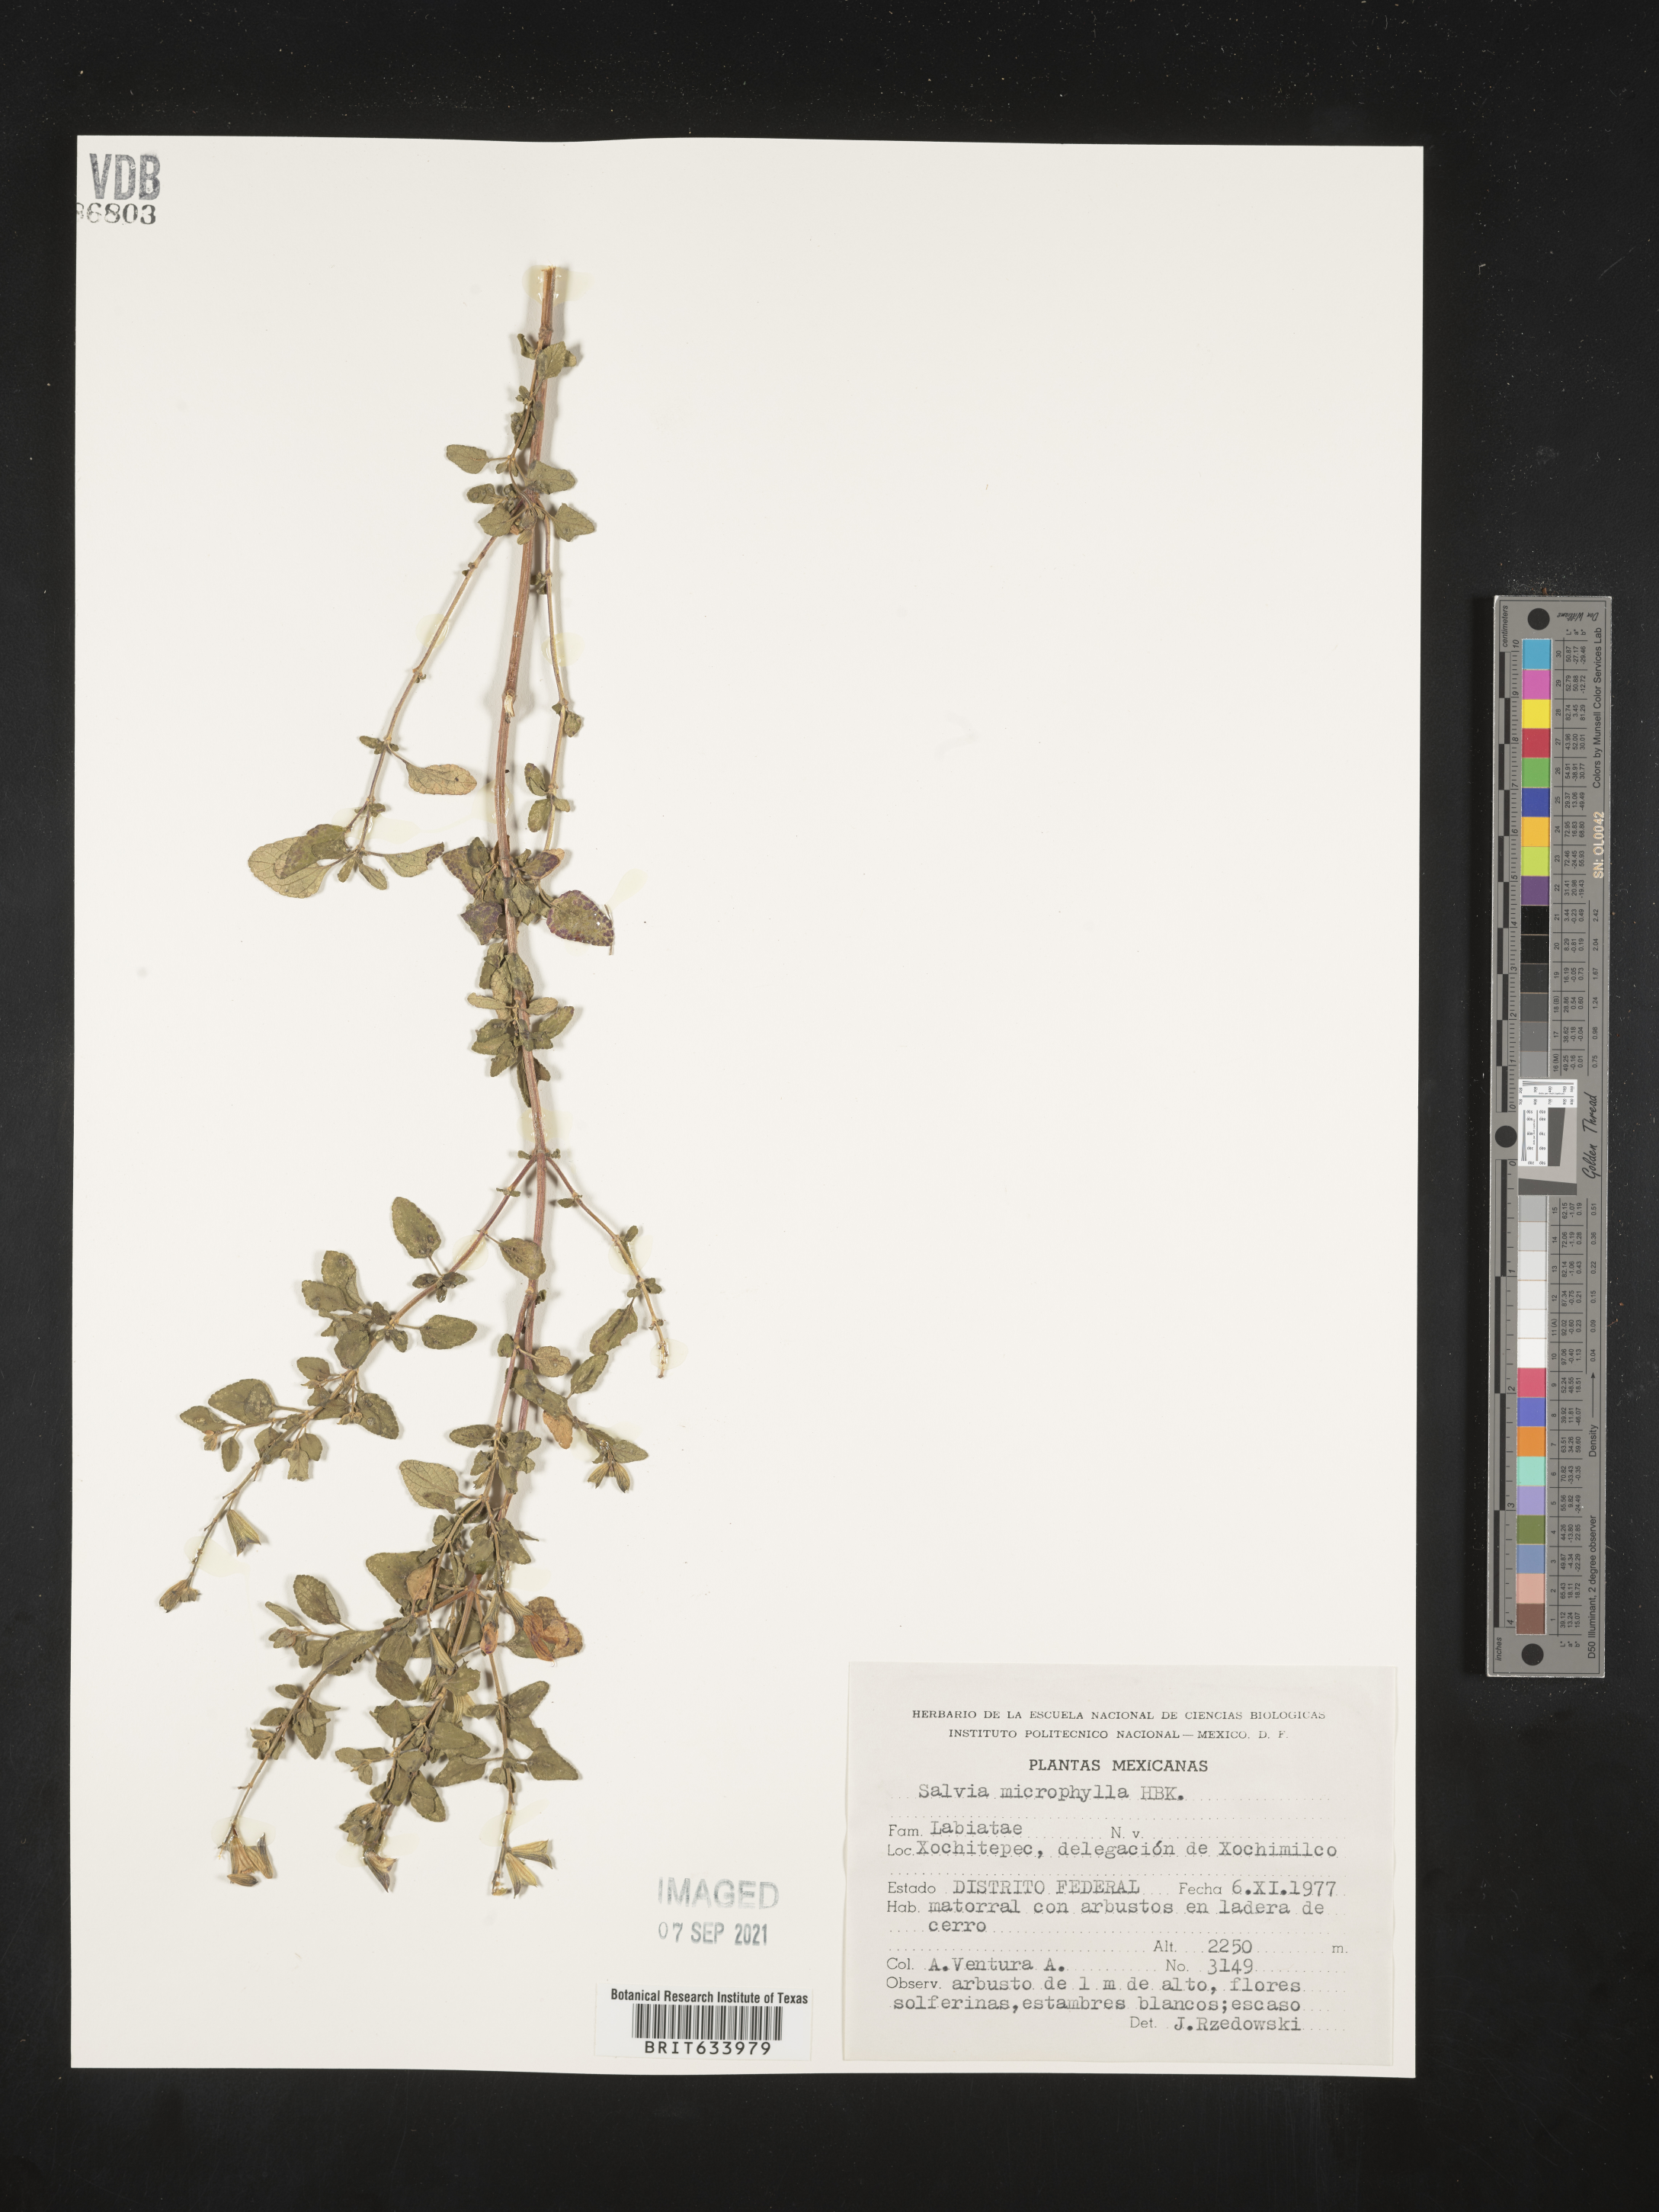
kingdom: Plantae
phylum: Tracheophyta
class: Magnoliopsida
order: Lamiales
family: Lamiaceae
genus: Salvia
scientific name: Salvia
